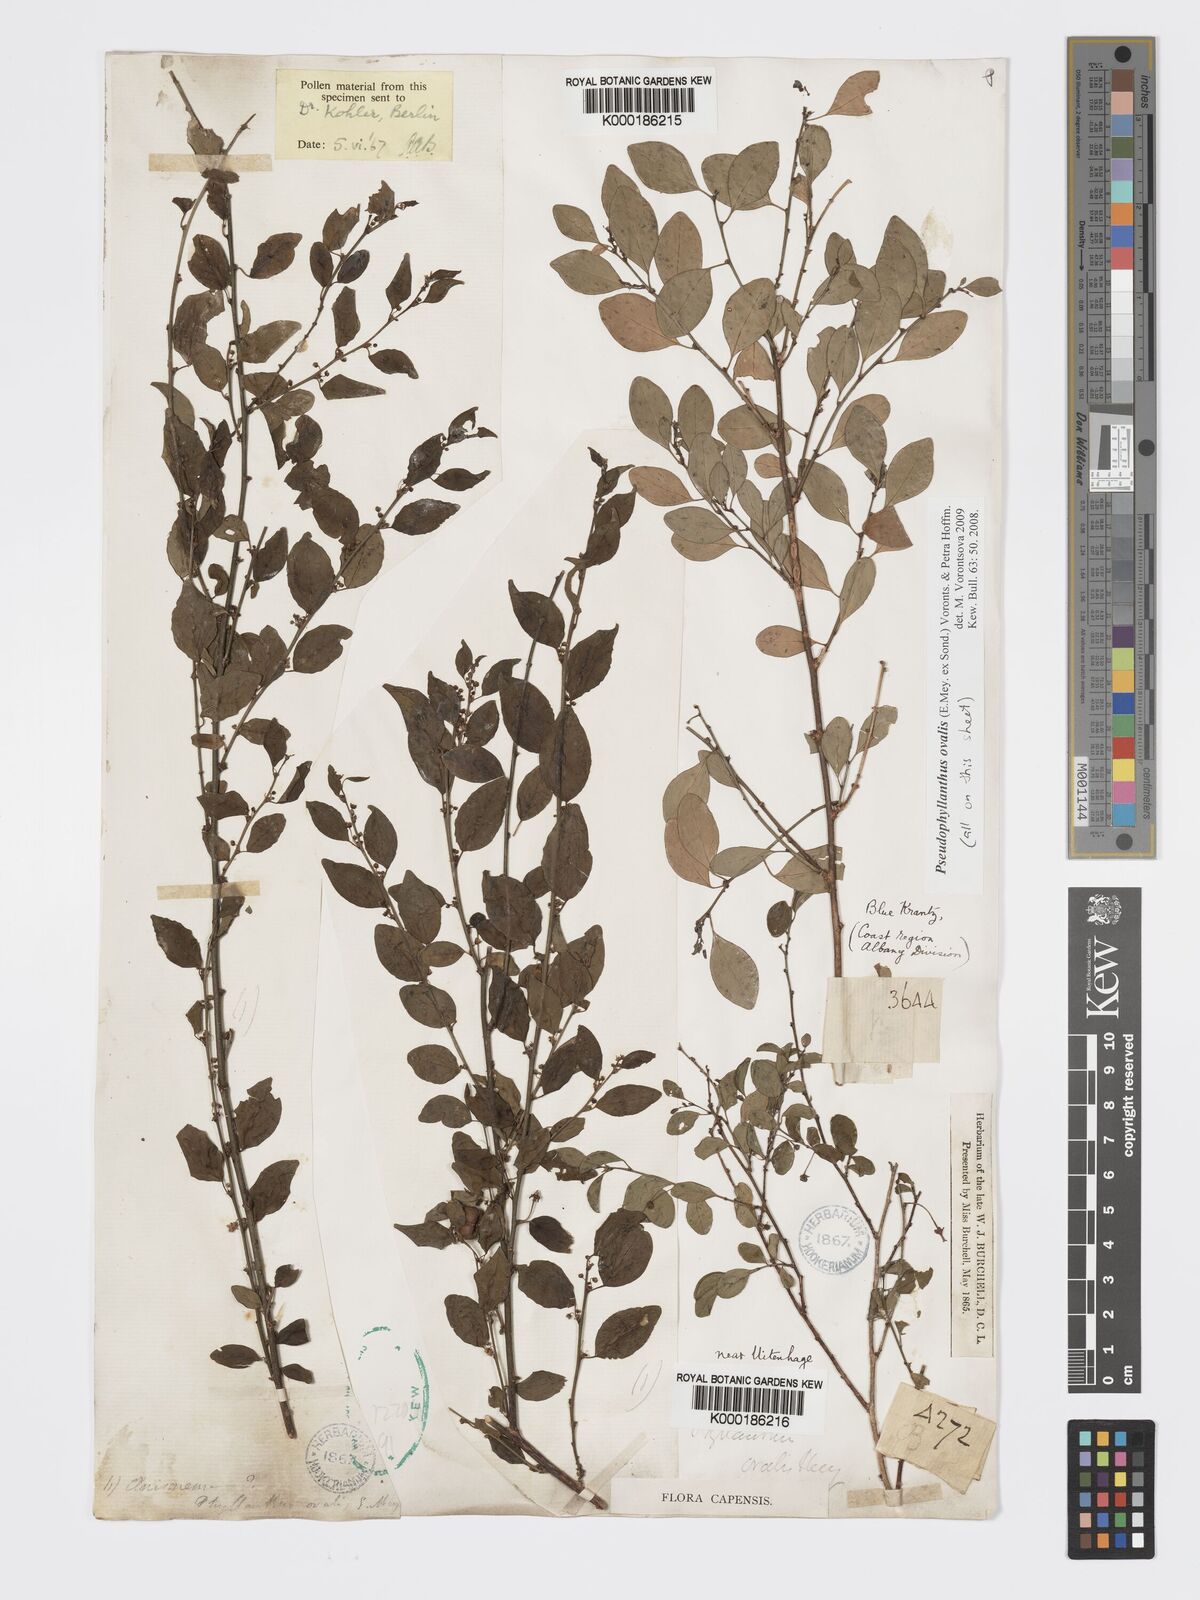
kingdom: Plantae
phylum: Tracheophyta
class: Magnoliopsida
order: Malpighiales
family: Phyllanthaceae
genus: Pseudophyllanthus
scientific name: Pseudophyllanthus ovalis
